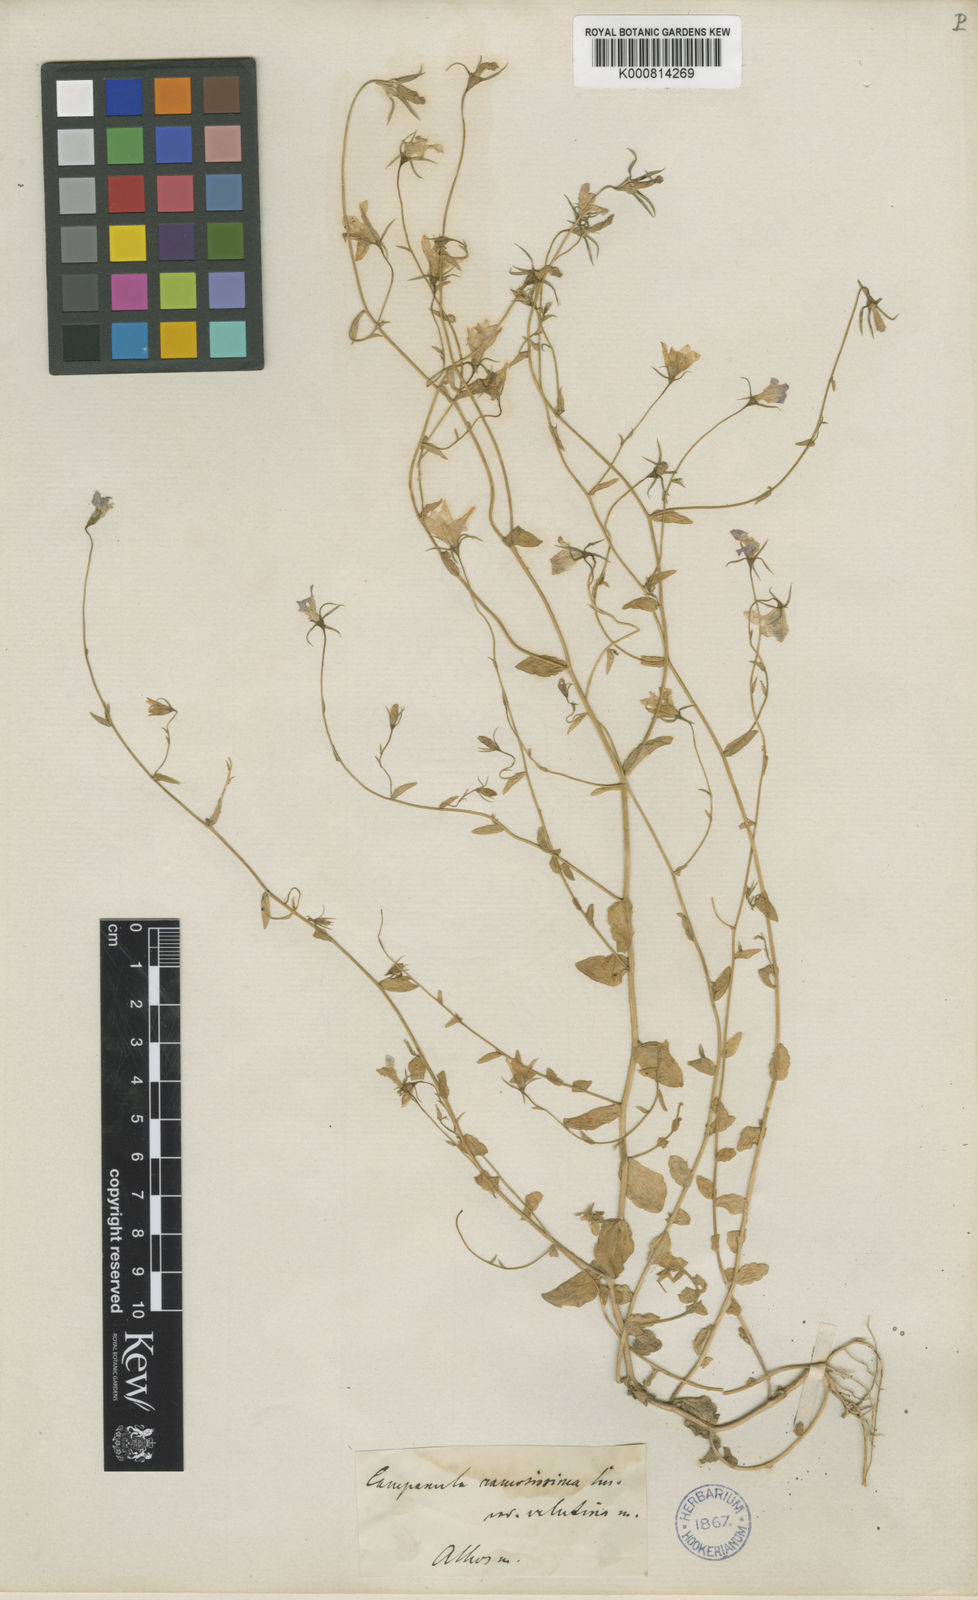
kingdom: Plantae
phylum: Tracheophyta
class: Magnoliopsida
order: Asterales
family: Campanulaceae
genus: Campanula
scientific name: Campanula phrygia
